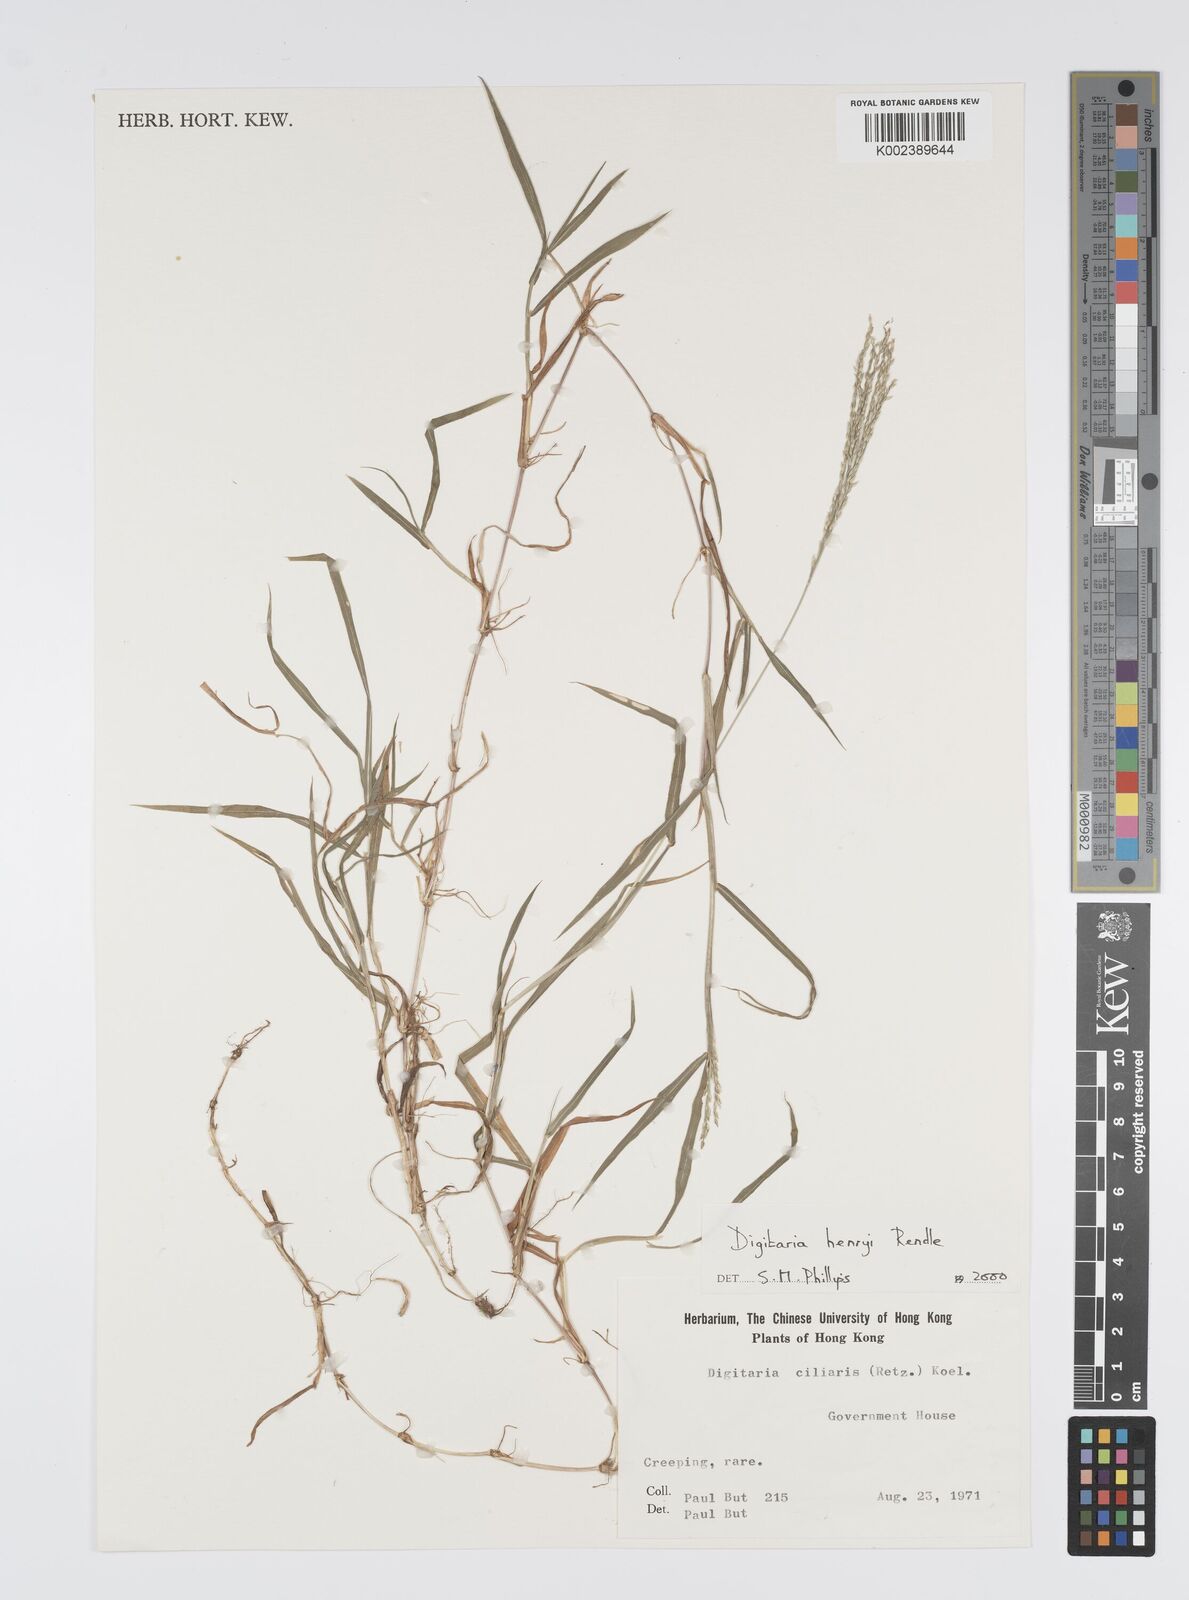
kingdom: Plantae
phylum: Tracheophyta
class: Liliopsida
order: Poales
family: Poaceae
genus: Digitaria
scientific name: Digitaria ciliaris
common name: Tropical finger-grass
